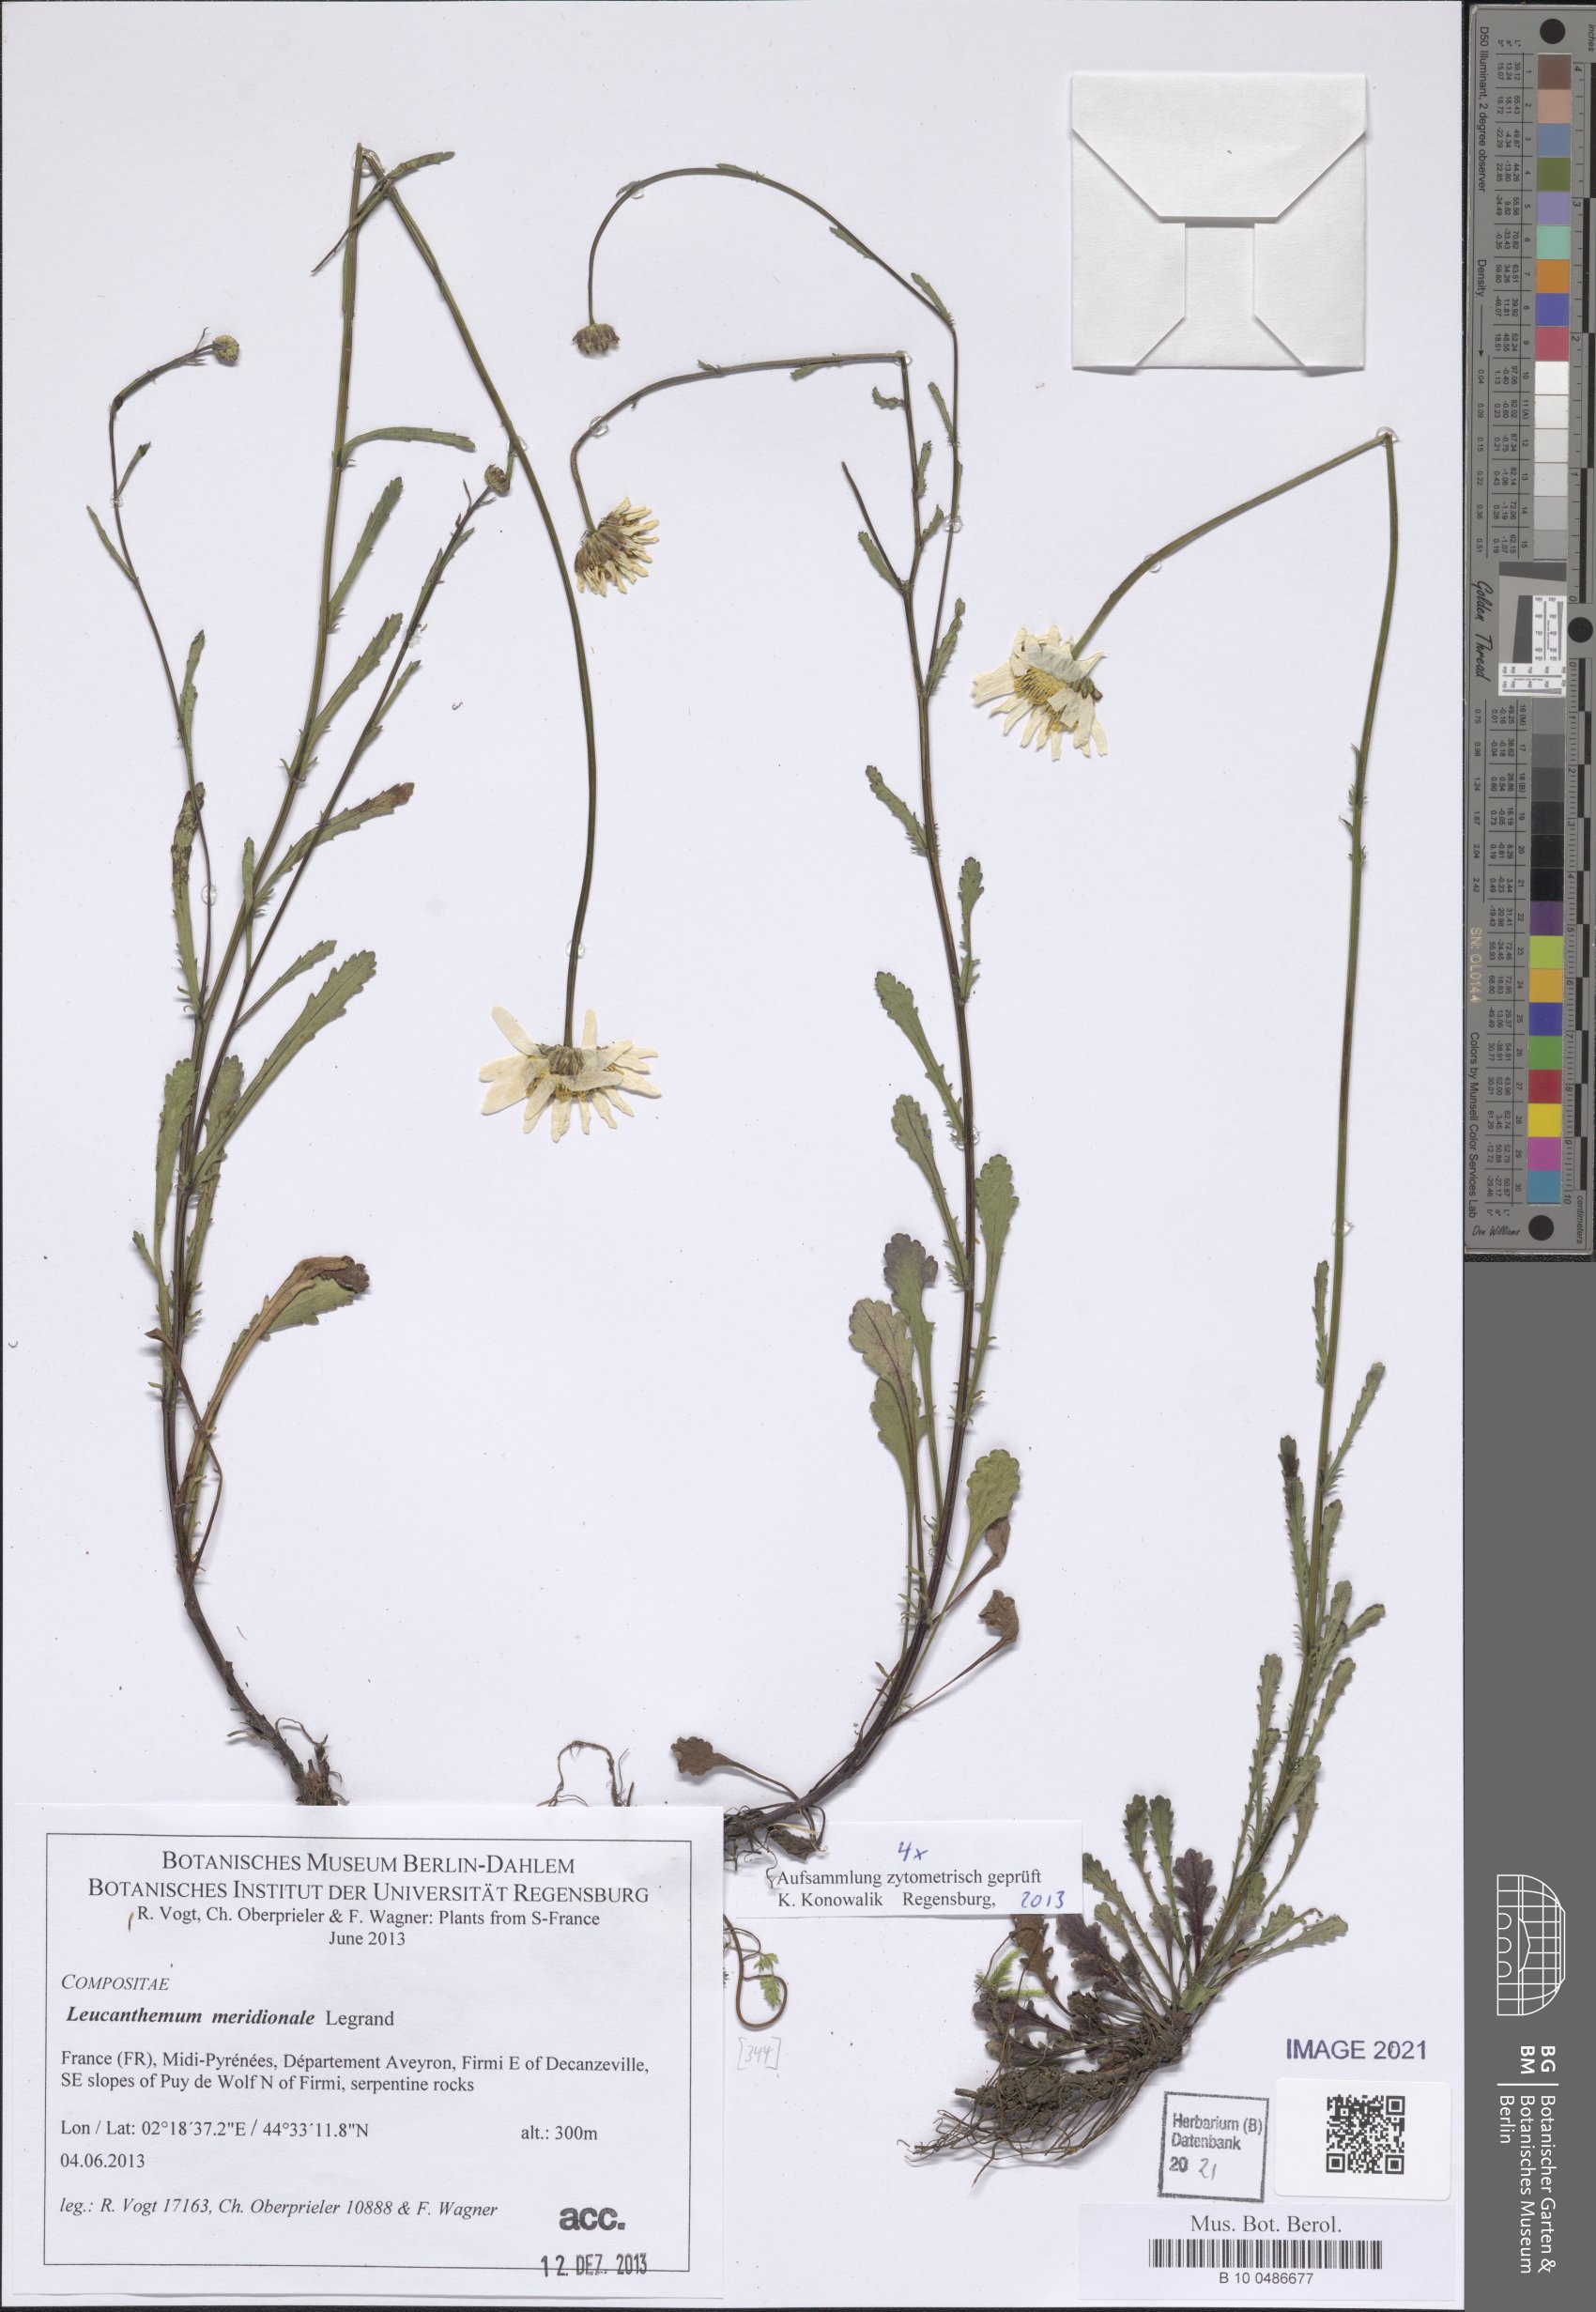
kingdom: Plantae
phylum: Tracheophyta
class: Magnoliopsida
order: Asterales
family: Asteraceae
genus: Leucanthemum
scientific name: Leucanthemum meridionale
